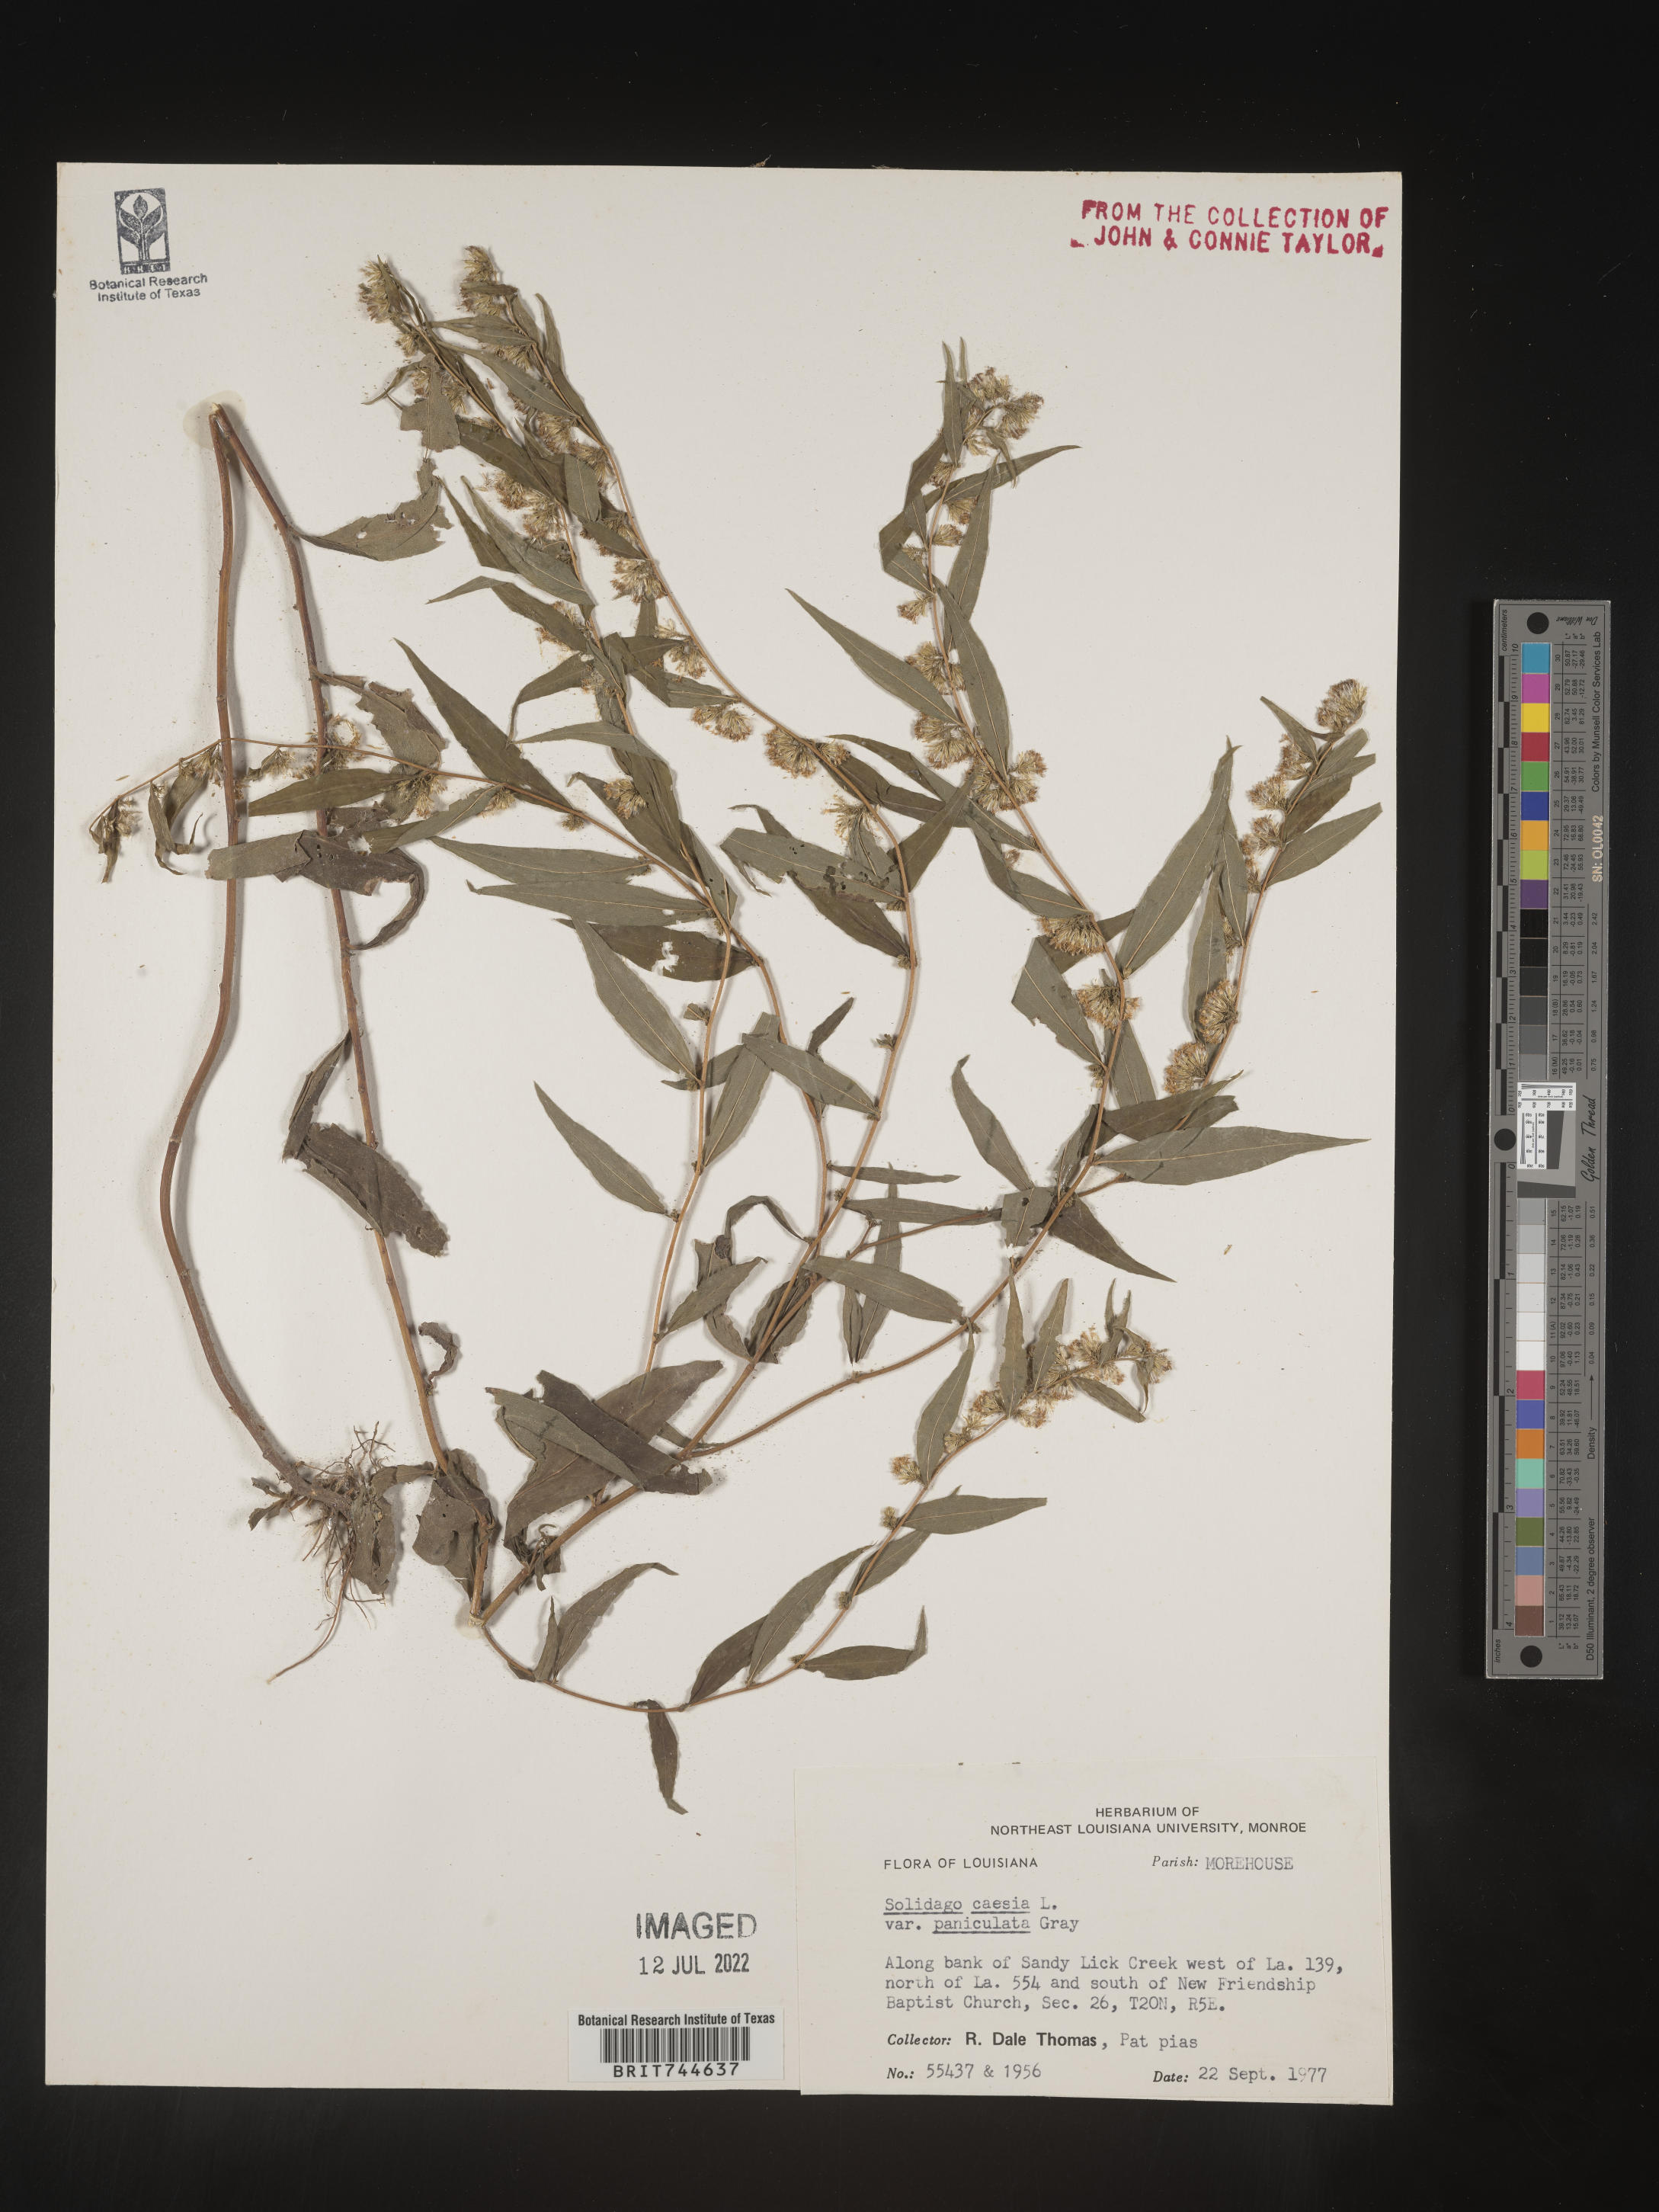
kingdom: Plantae
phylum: Tracheophyta
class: Magnoliopsida
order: Asterales
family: Asteraceae
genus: Solidago
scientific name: Solidago caesia
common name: Woodland goldenrod
